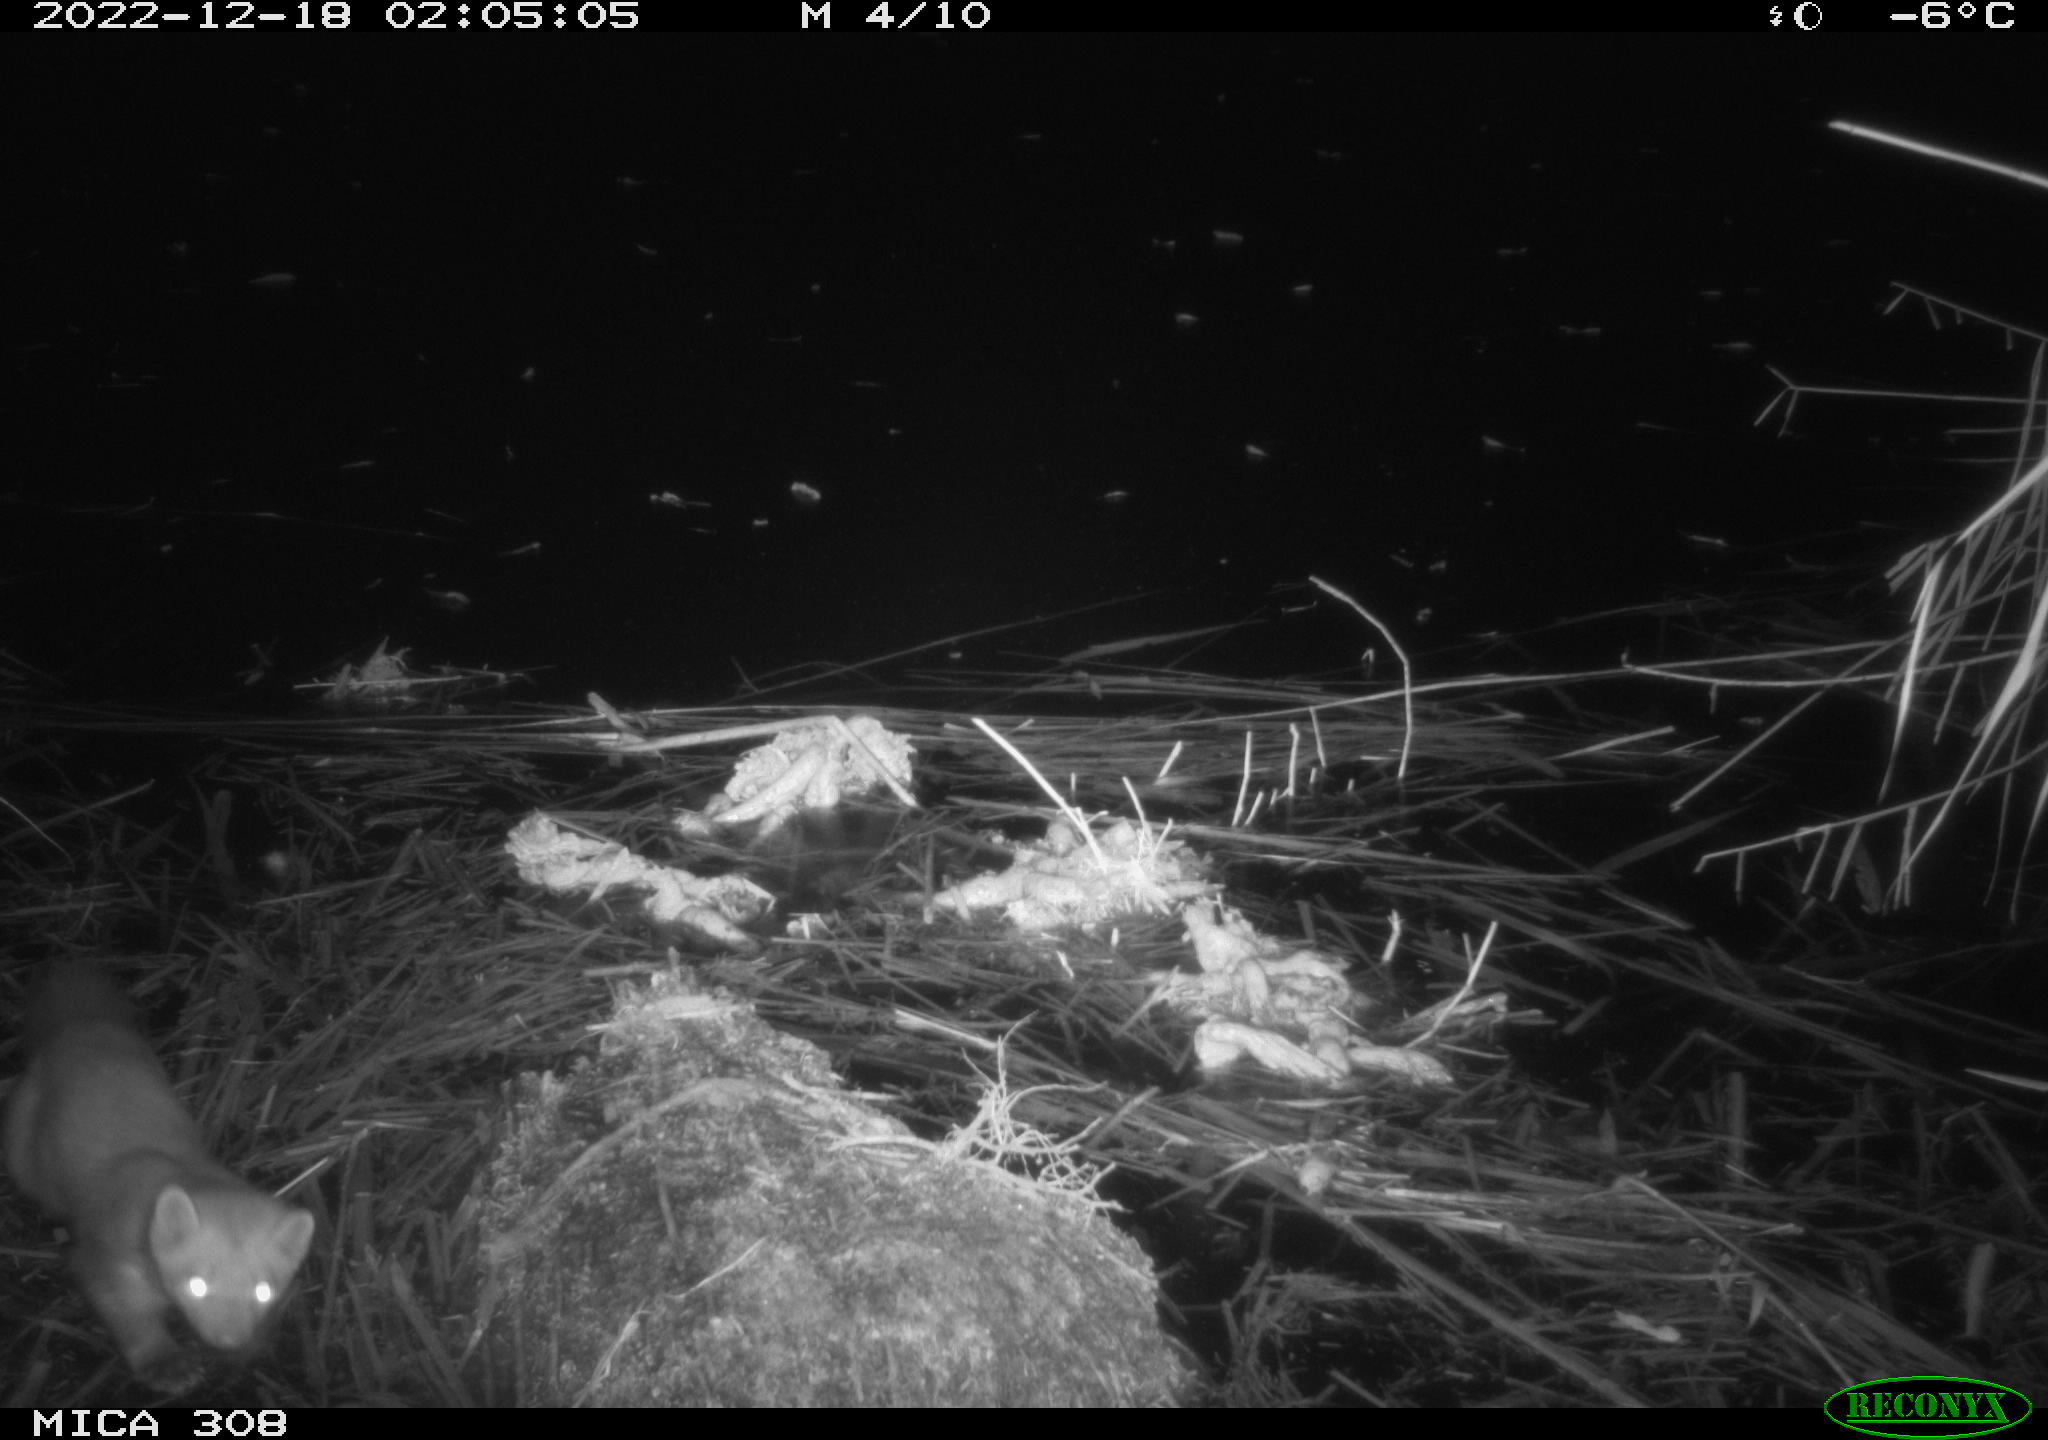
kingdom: Animalia
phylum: Chordata
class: Mammalia
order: Carnivora
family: Mustelidae
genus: Martes
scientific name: Martes martes
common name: European pine marten
